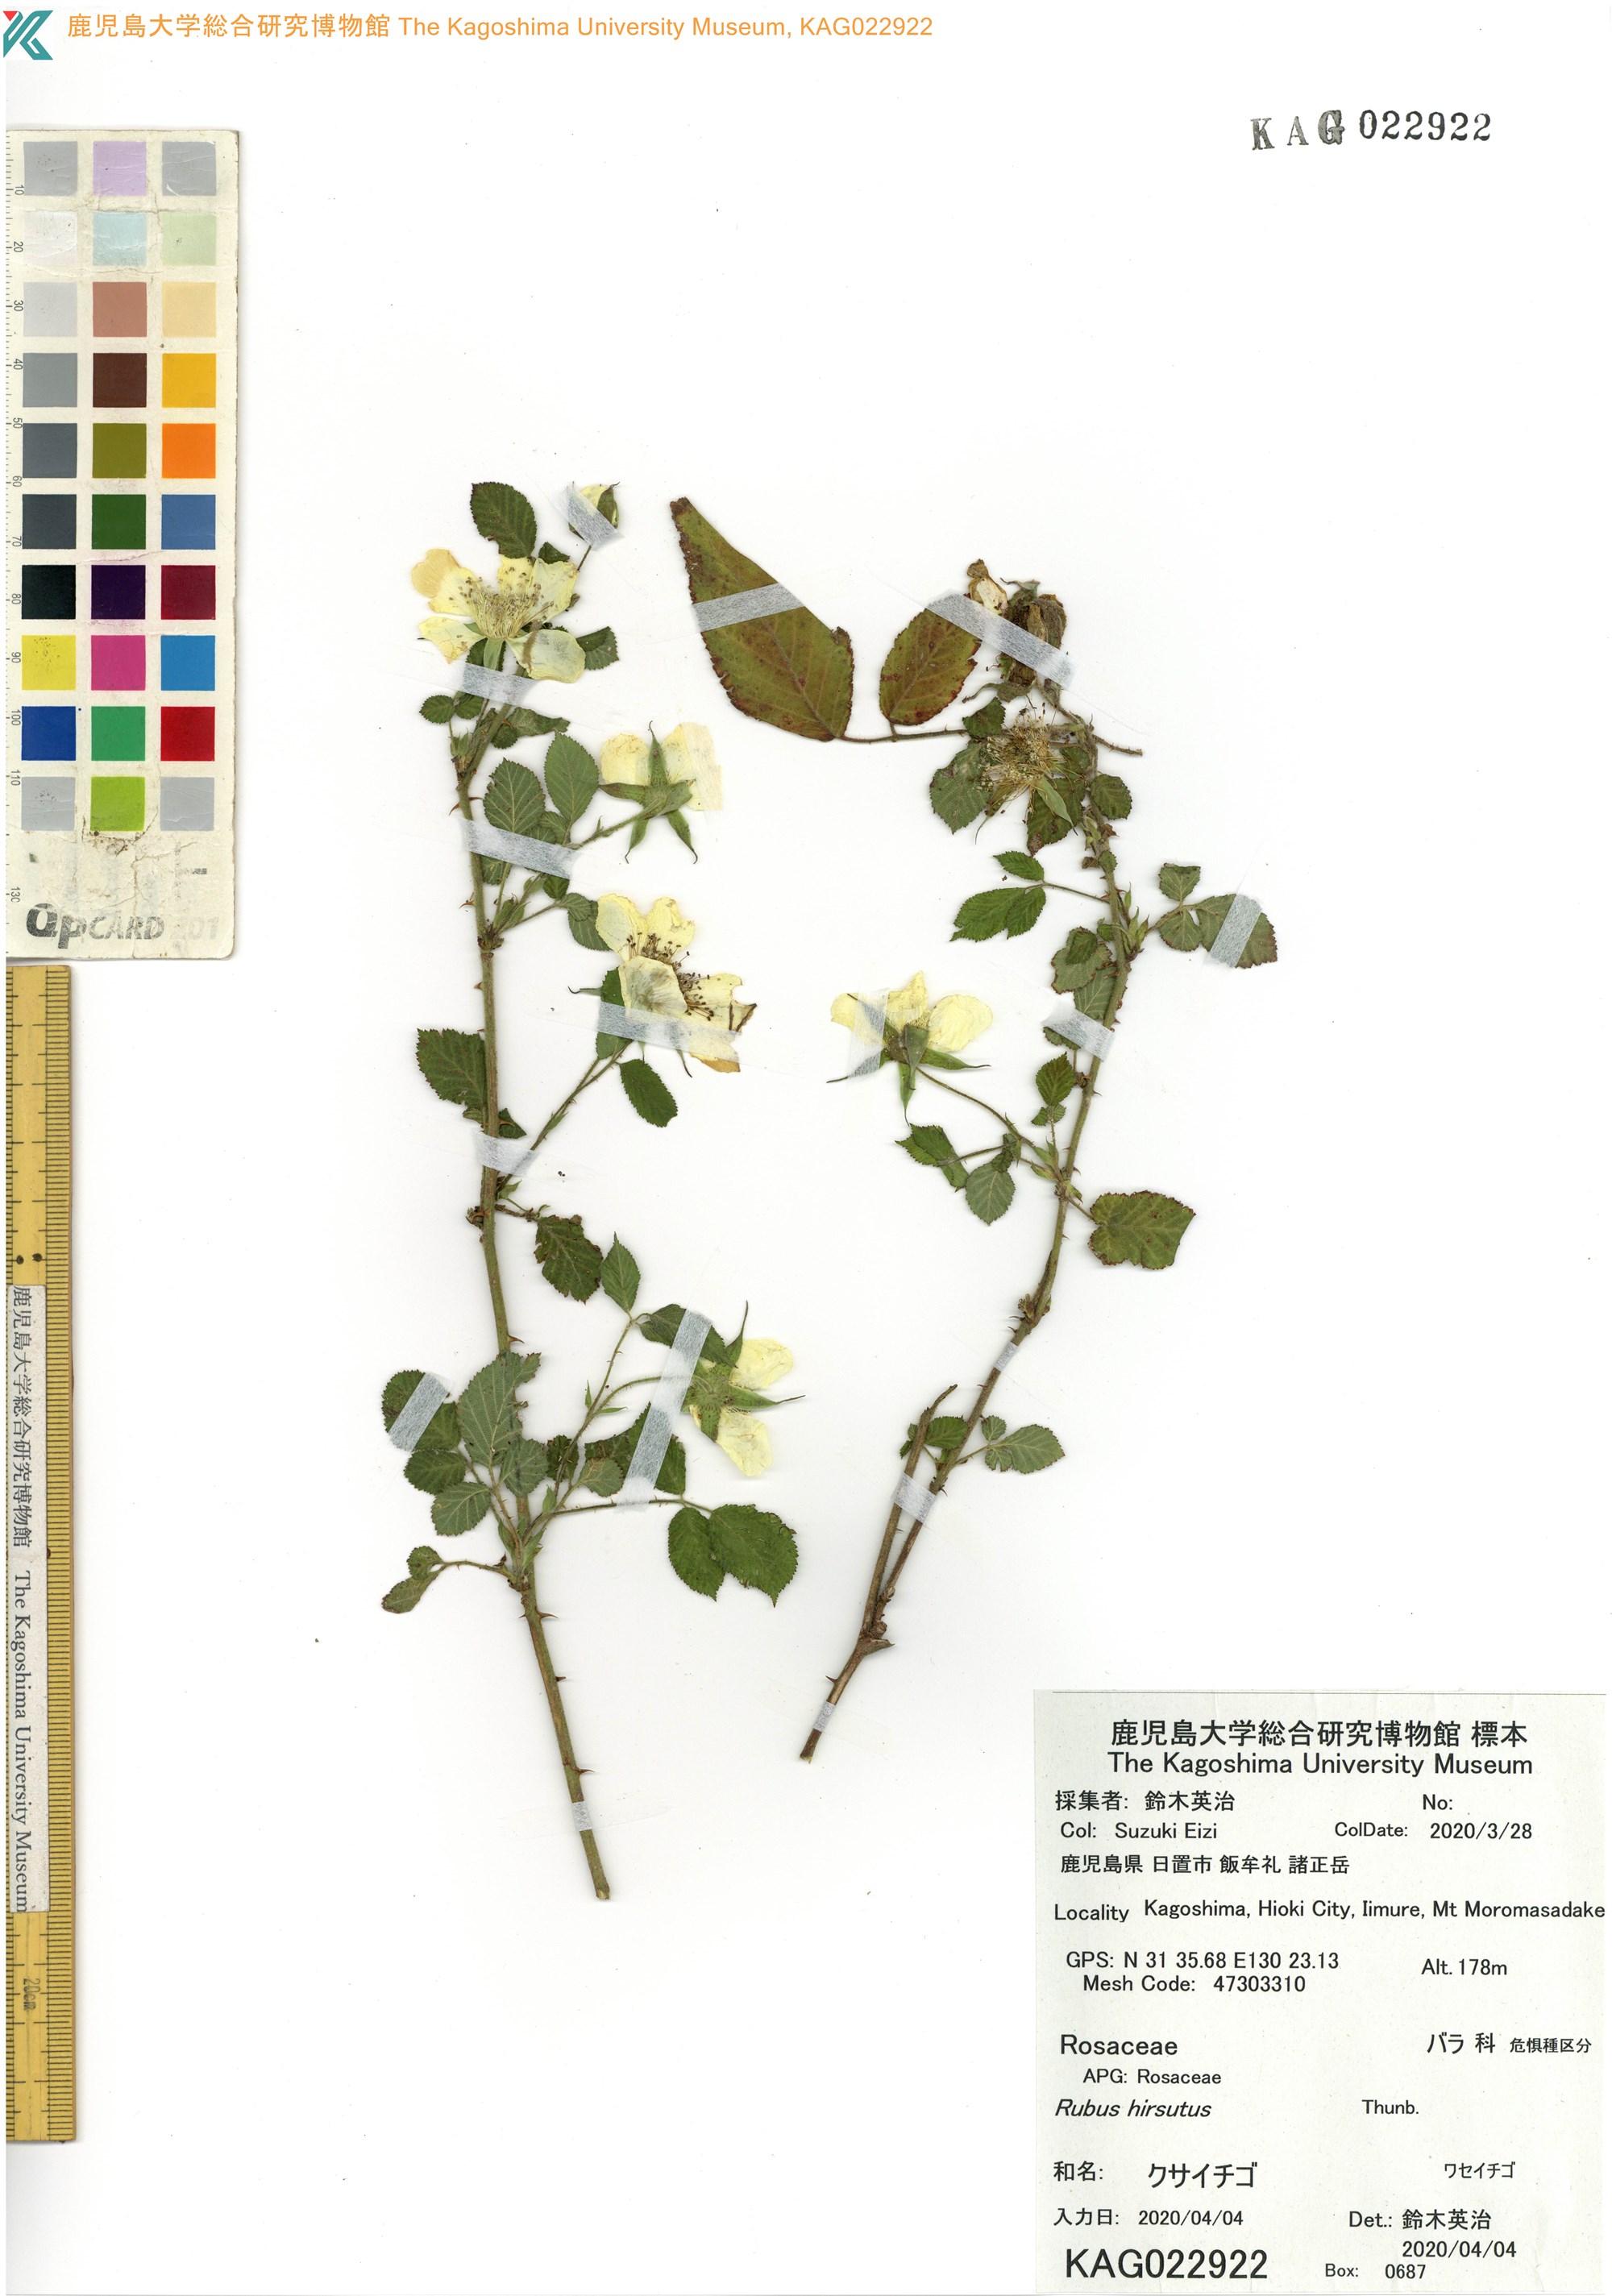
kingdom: Plantae
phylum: Tracheophyta
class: Magnoliopsida
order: Rosales
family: Rosaceae
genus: Rubus
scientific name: Rubus hirsutus
